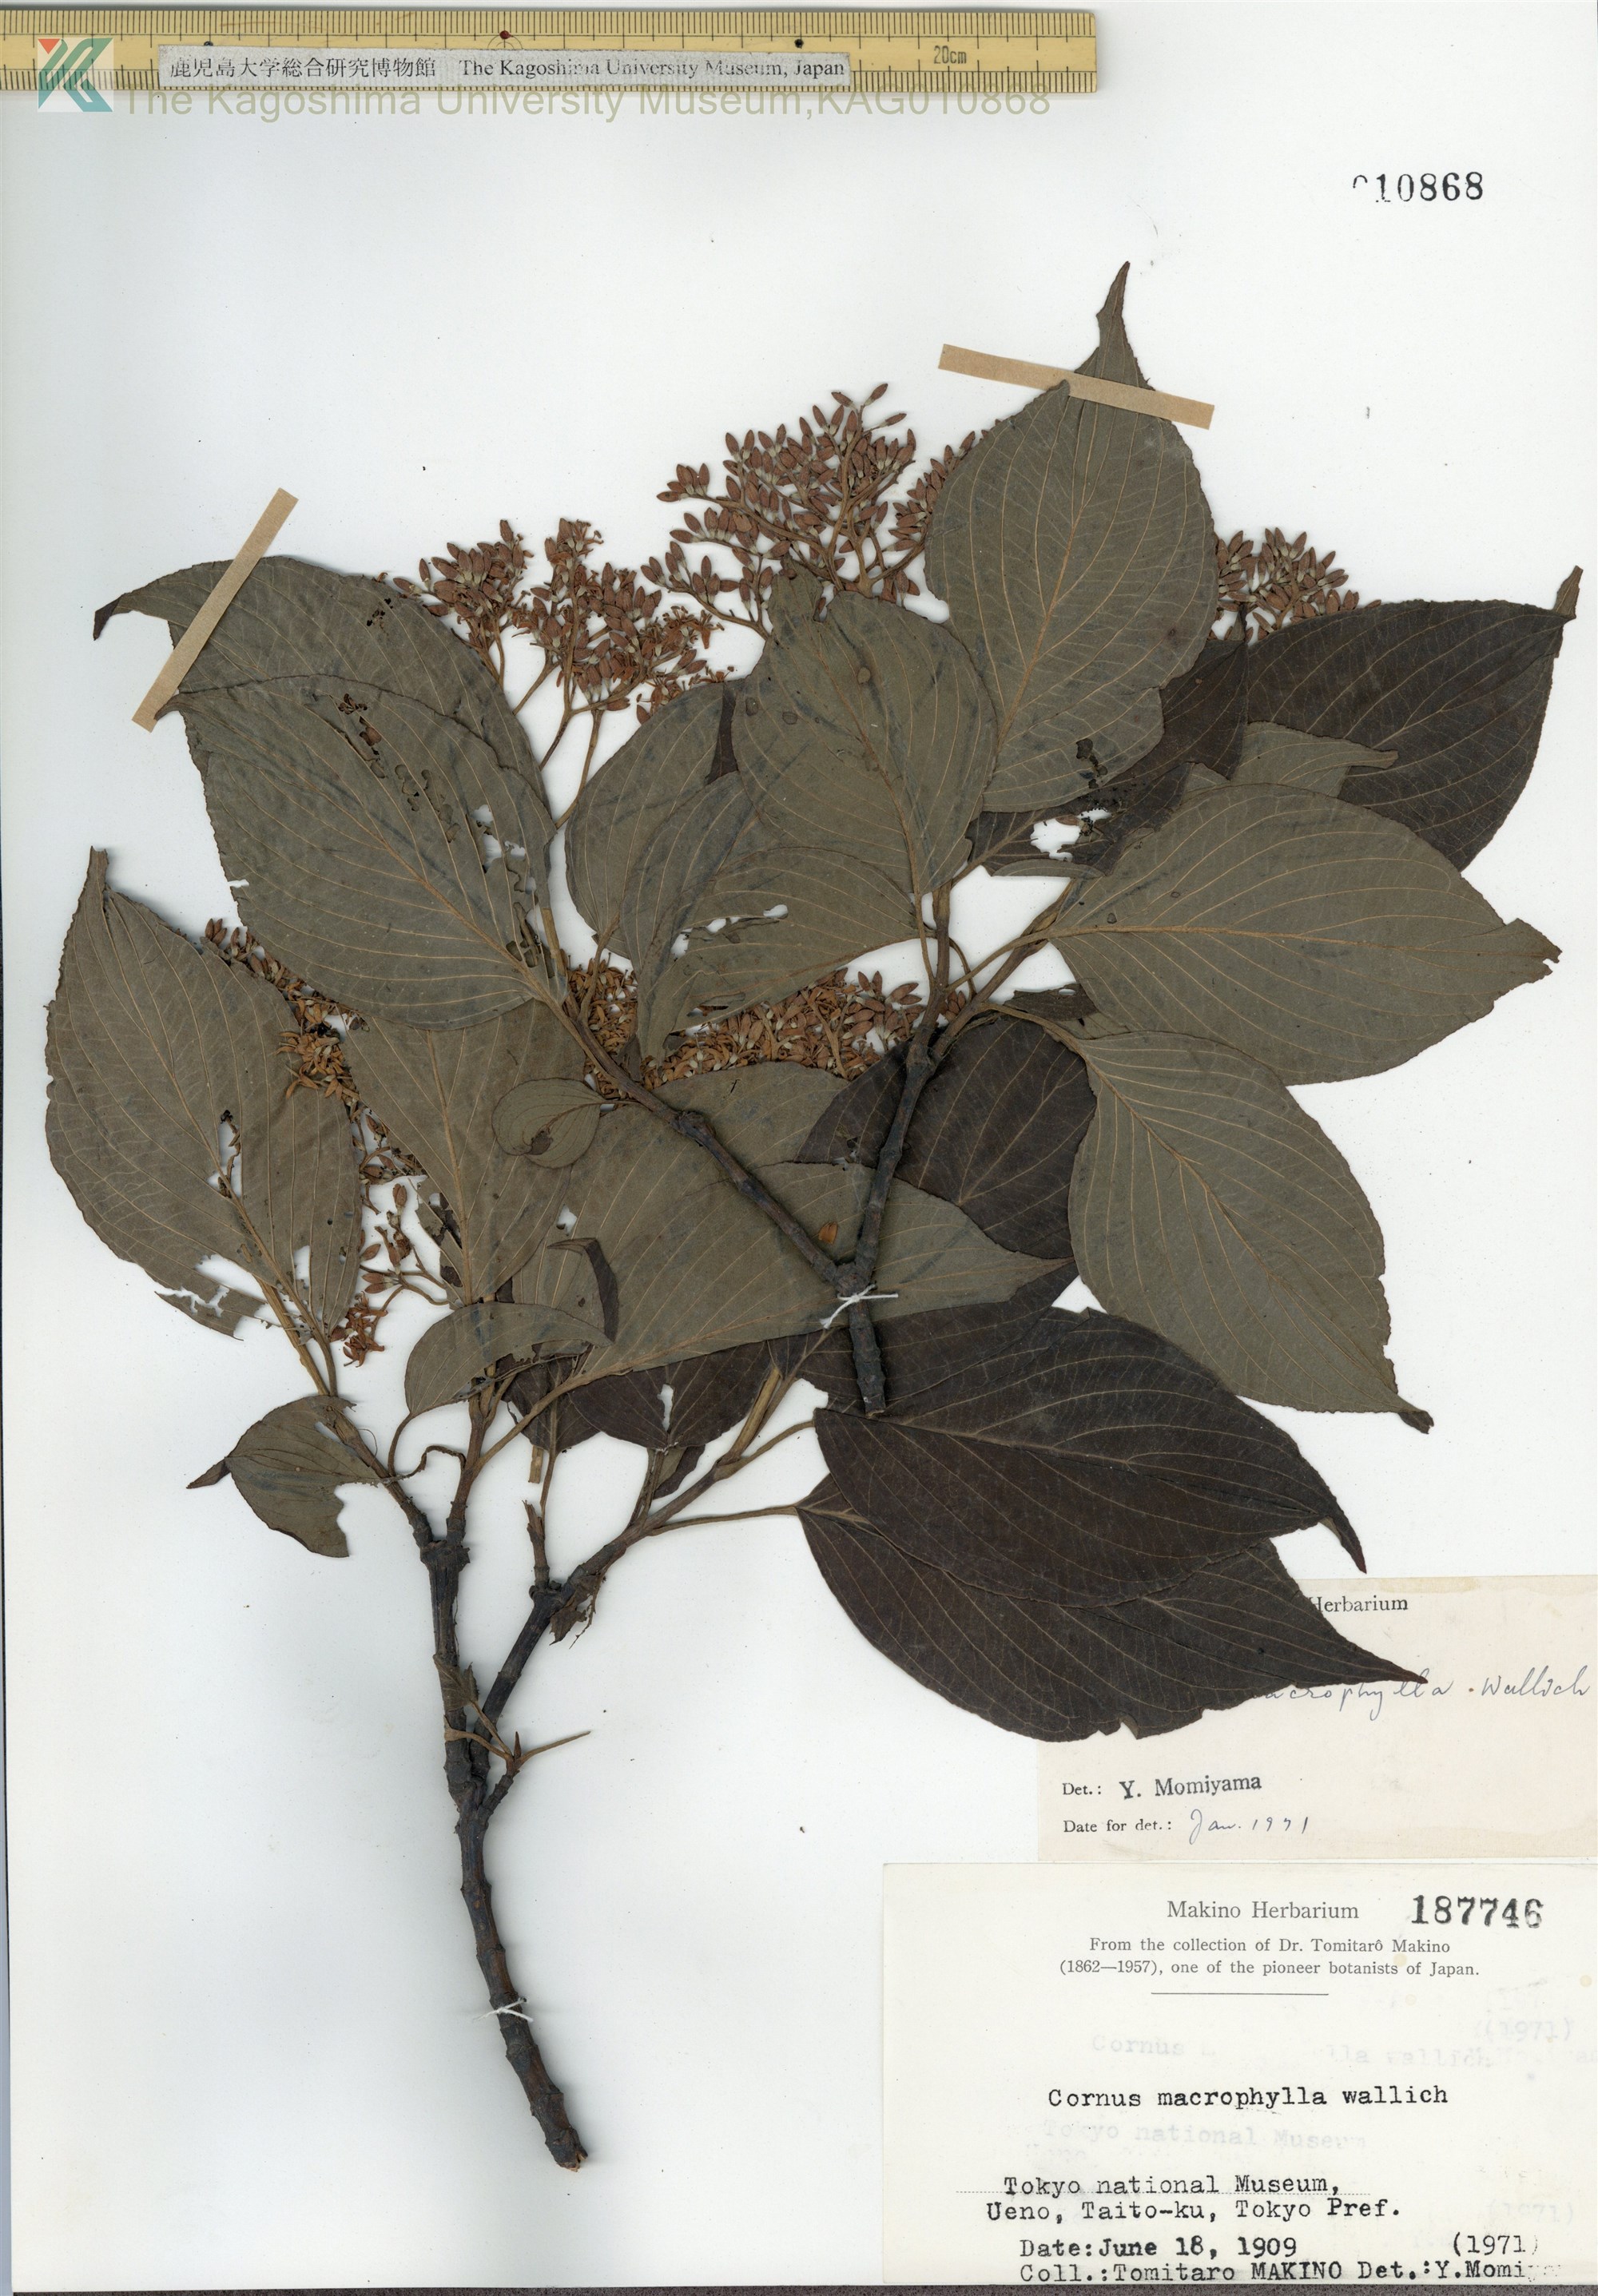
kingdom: Plantae
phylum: Tracheophyta
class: Magnoliopsida
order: Cornales
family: Cornaceae
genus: Cornus
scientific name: Cornus macrophylla
